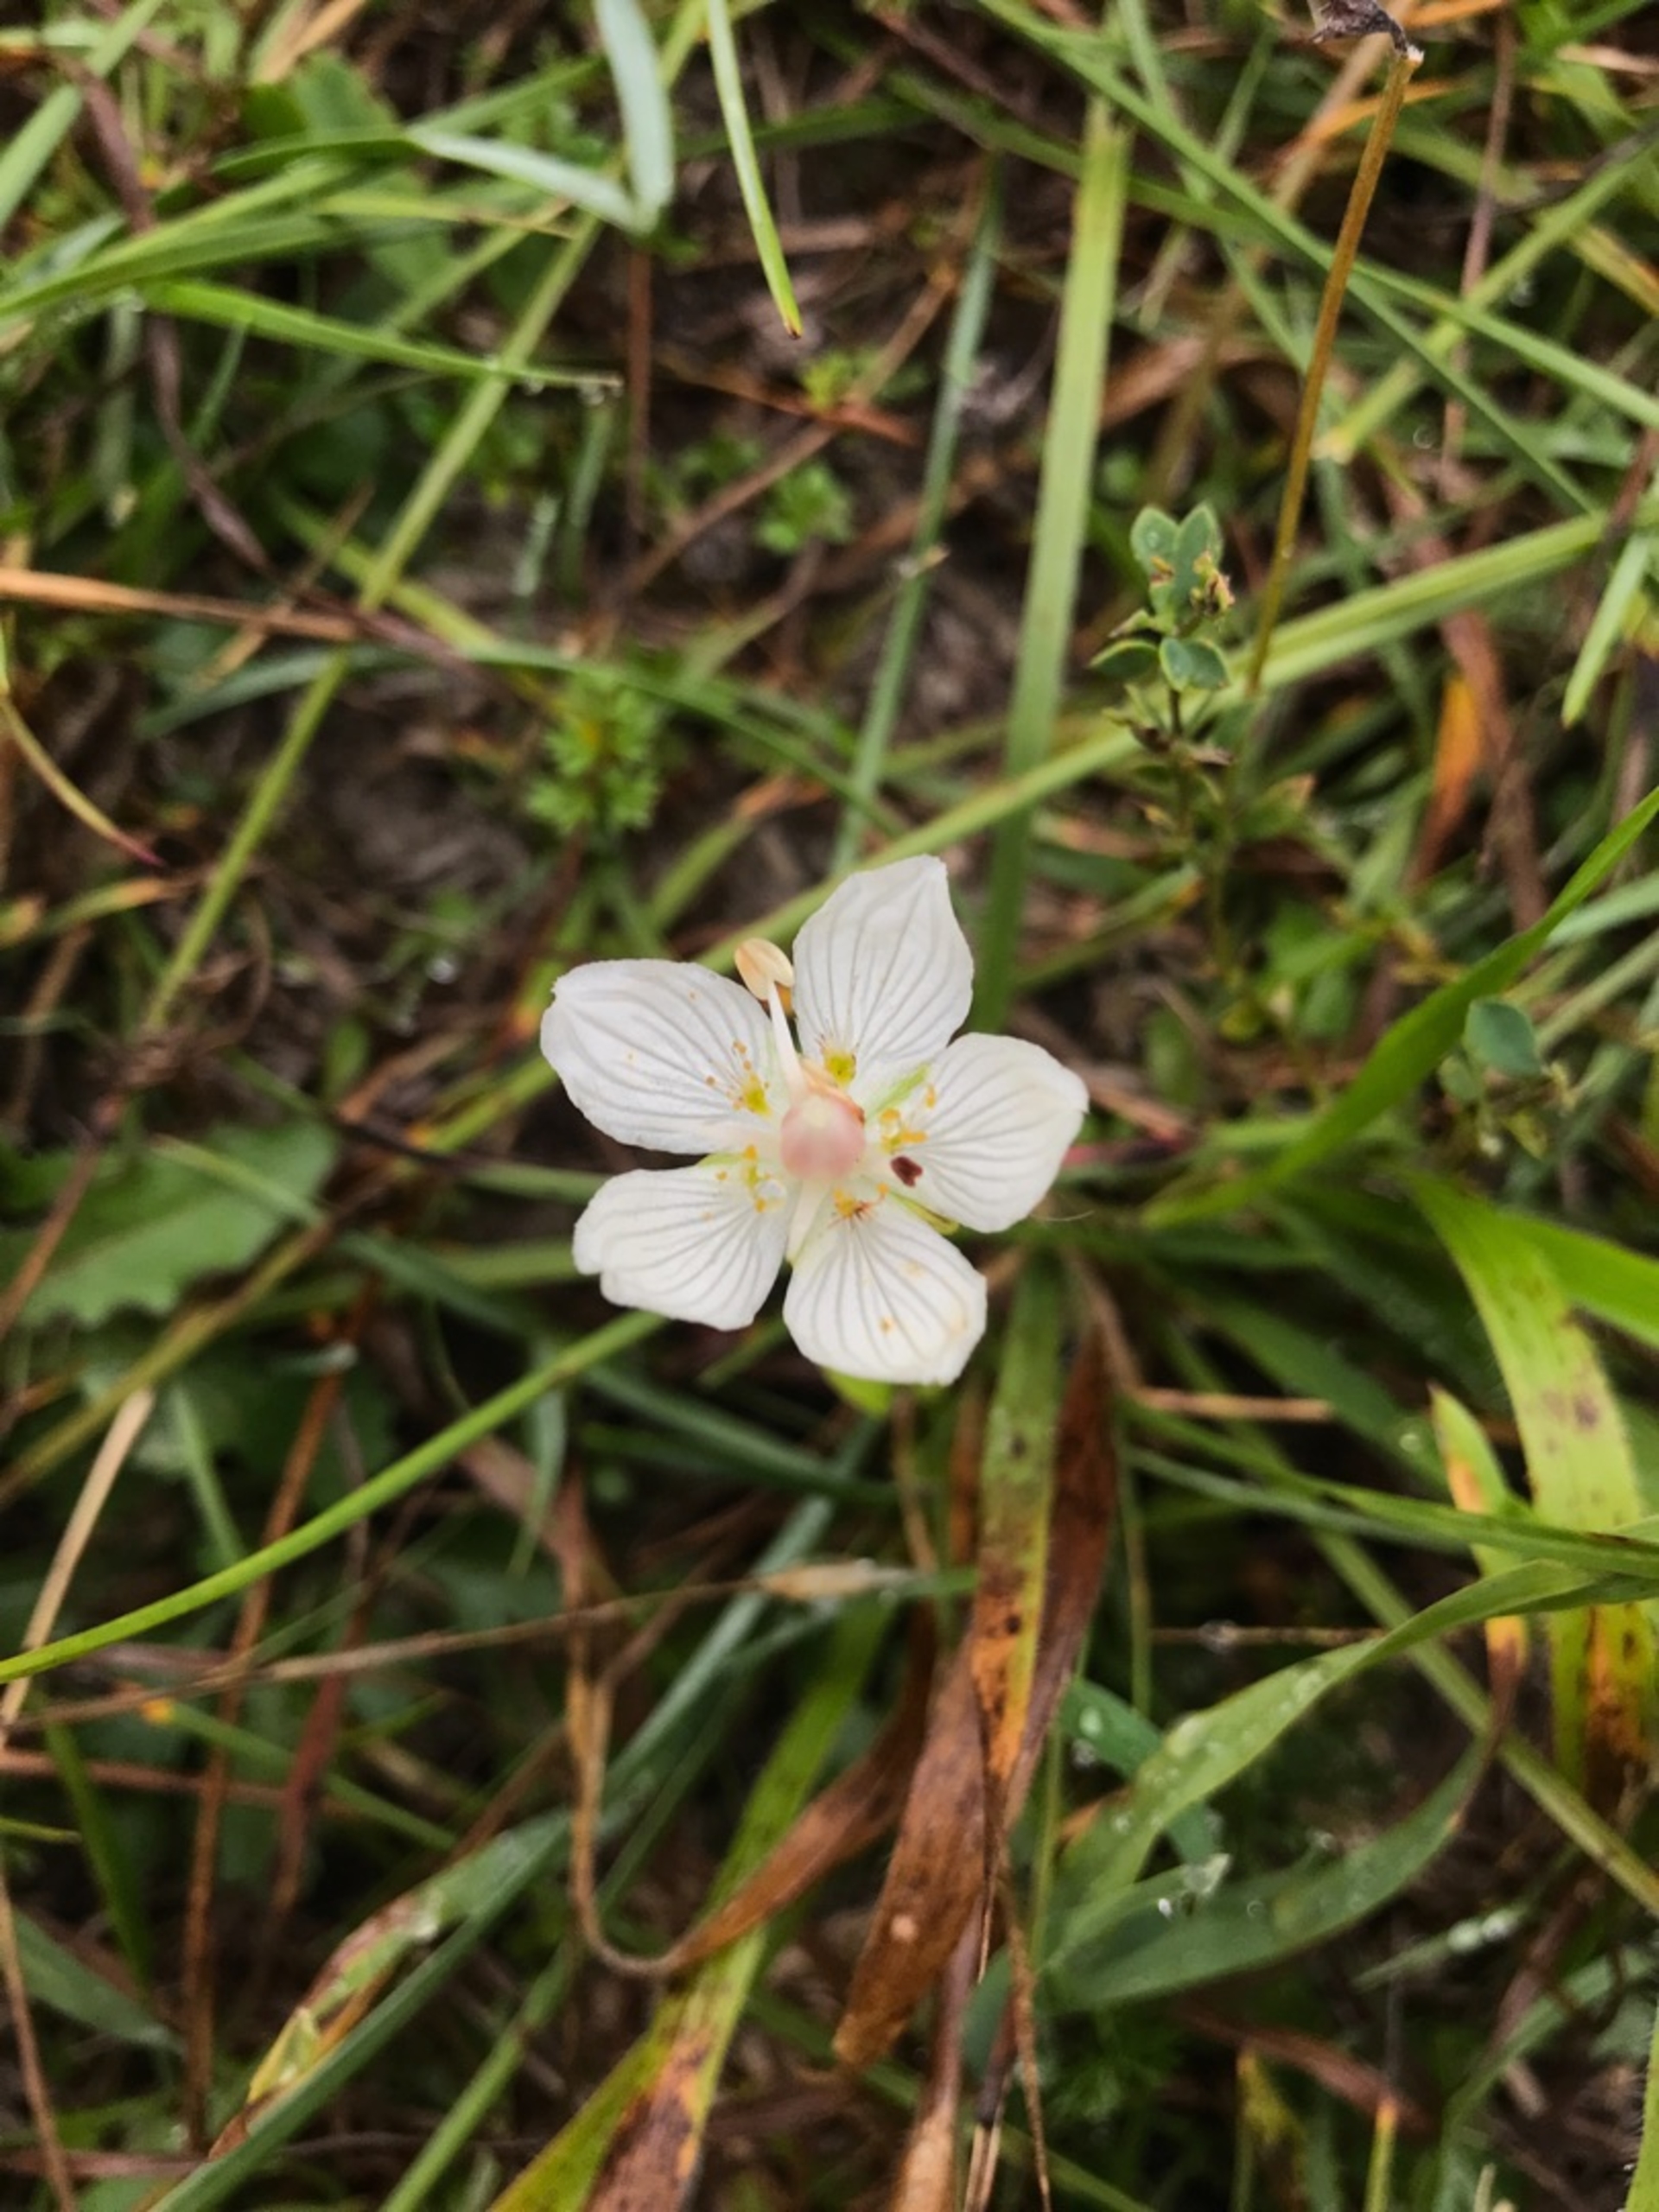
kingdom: Plantae
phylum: Tracheophyta
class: Magnoliopsida
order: Celastrales
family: Parnassiaceae
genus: Parnassia
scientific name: Parnassia palustris
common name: Leverurt
